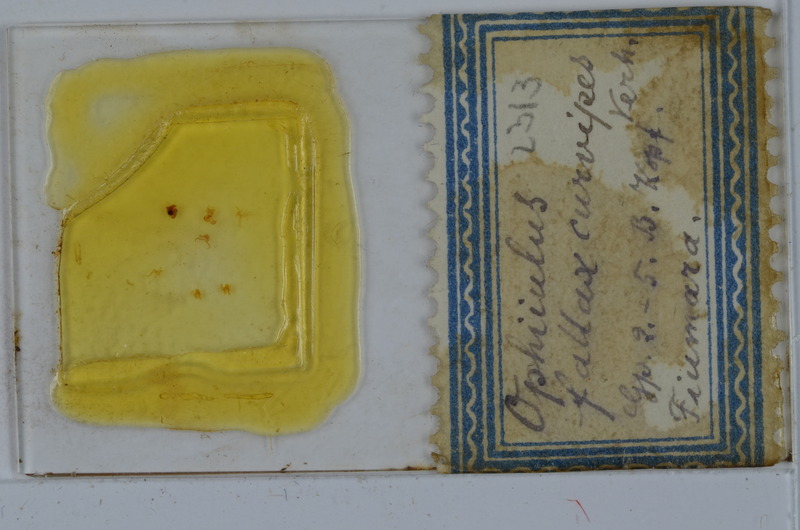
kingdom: Animalia
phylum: Arthropoda
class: Diplopoda
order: Julida
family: Julidae
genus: Ophiiulus
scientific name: Ophiiulus fallax
